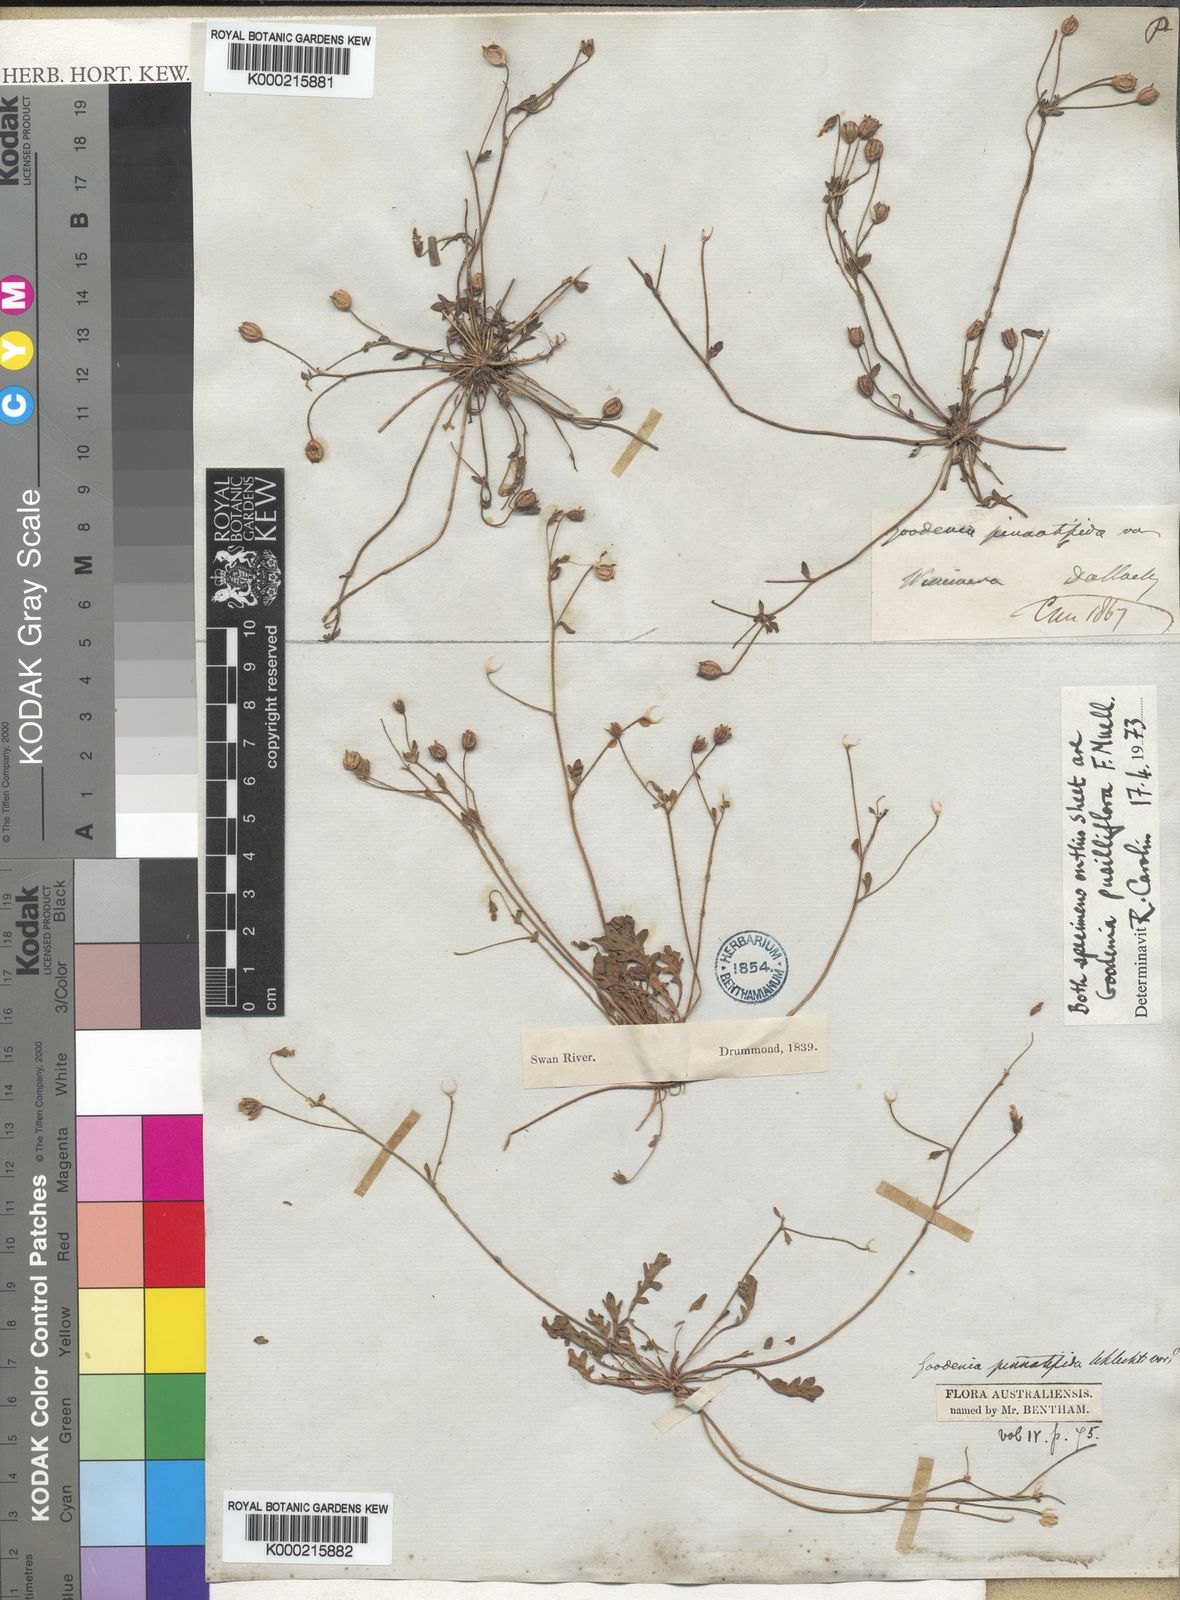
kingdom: Plantae
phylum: Tracheophyta
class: Magnoliopsida
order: Asterales
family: Goodeniaceae
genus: Goodenia
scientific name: Goodenia pinnatifida
